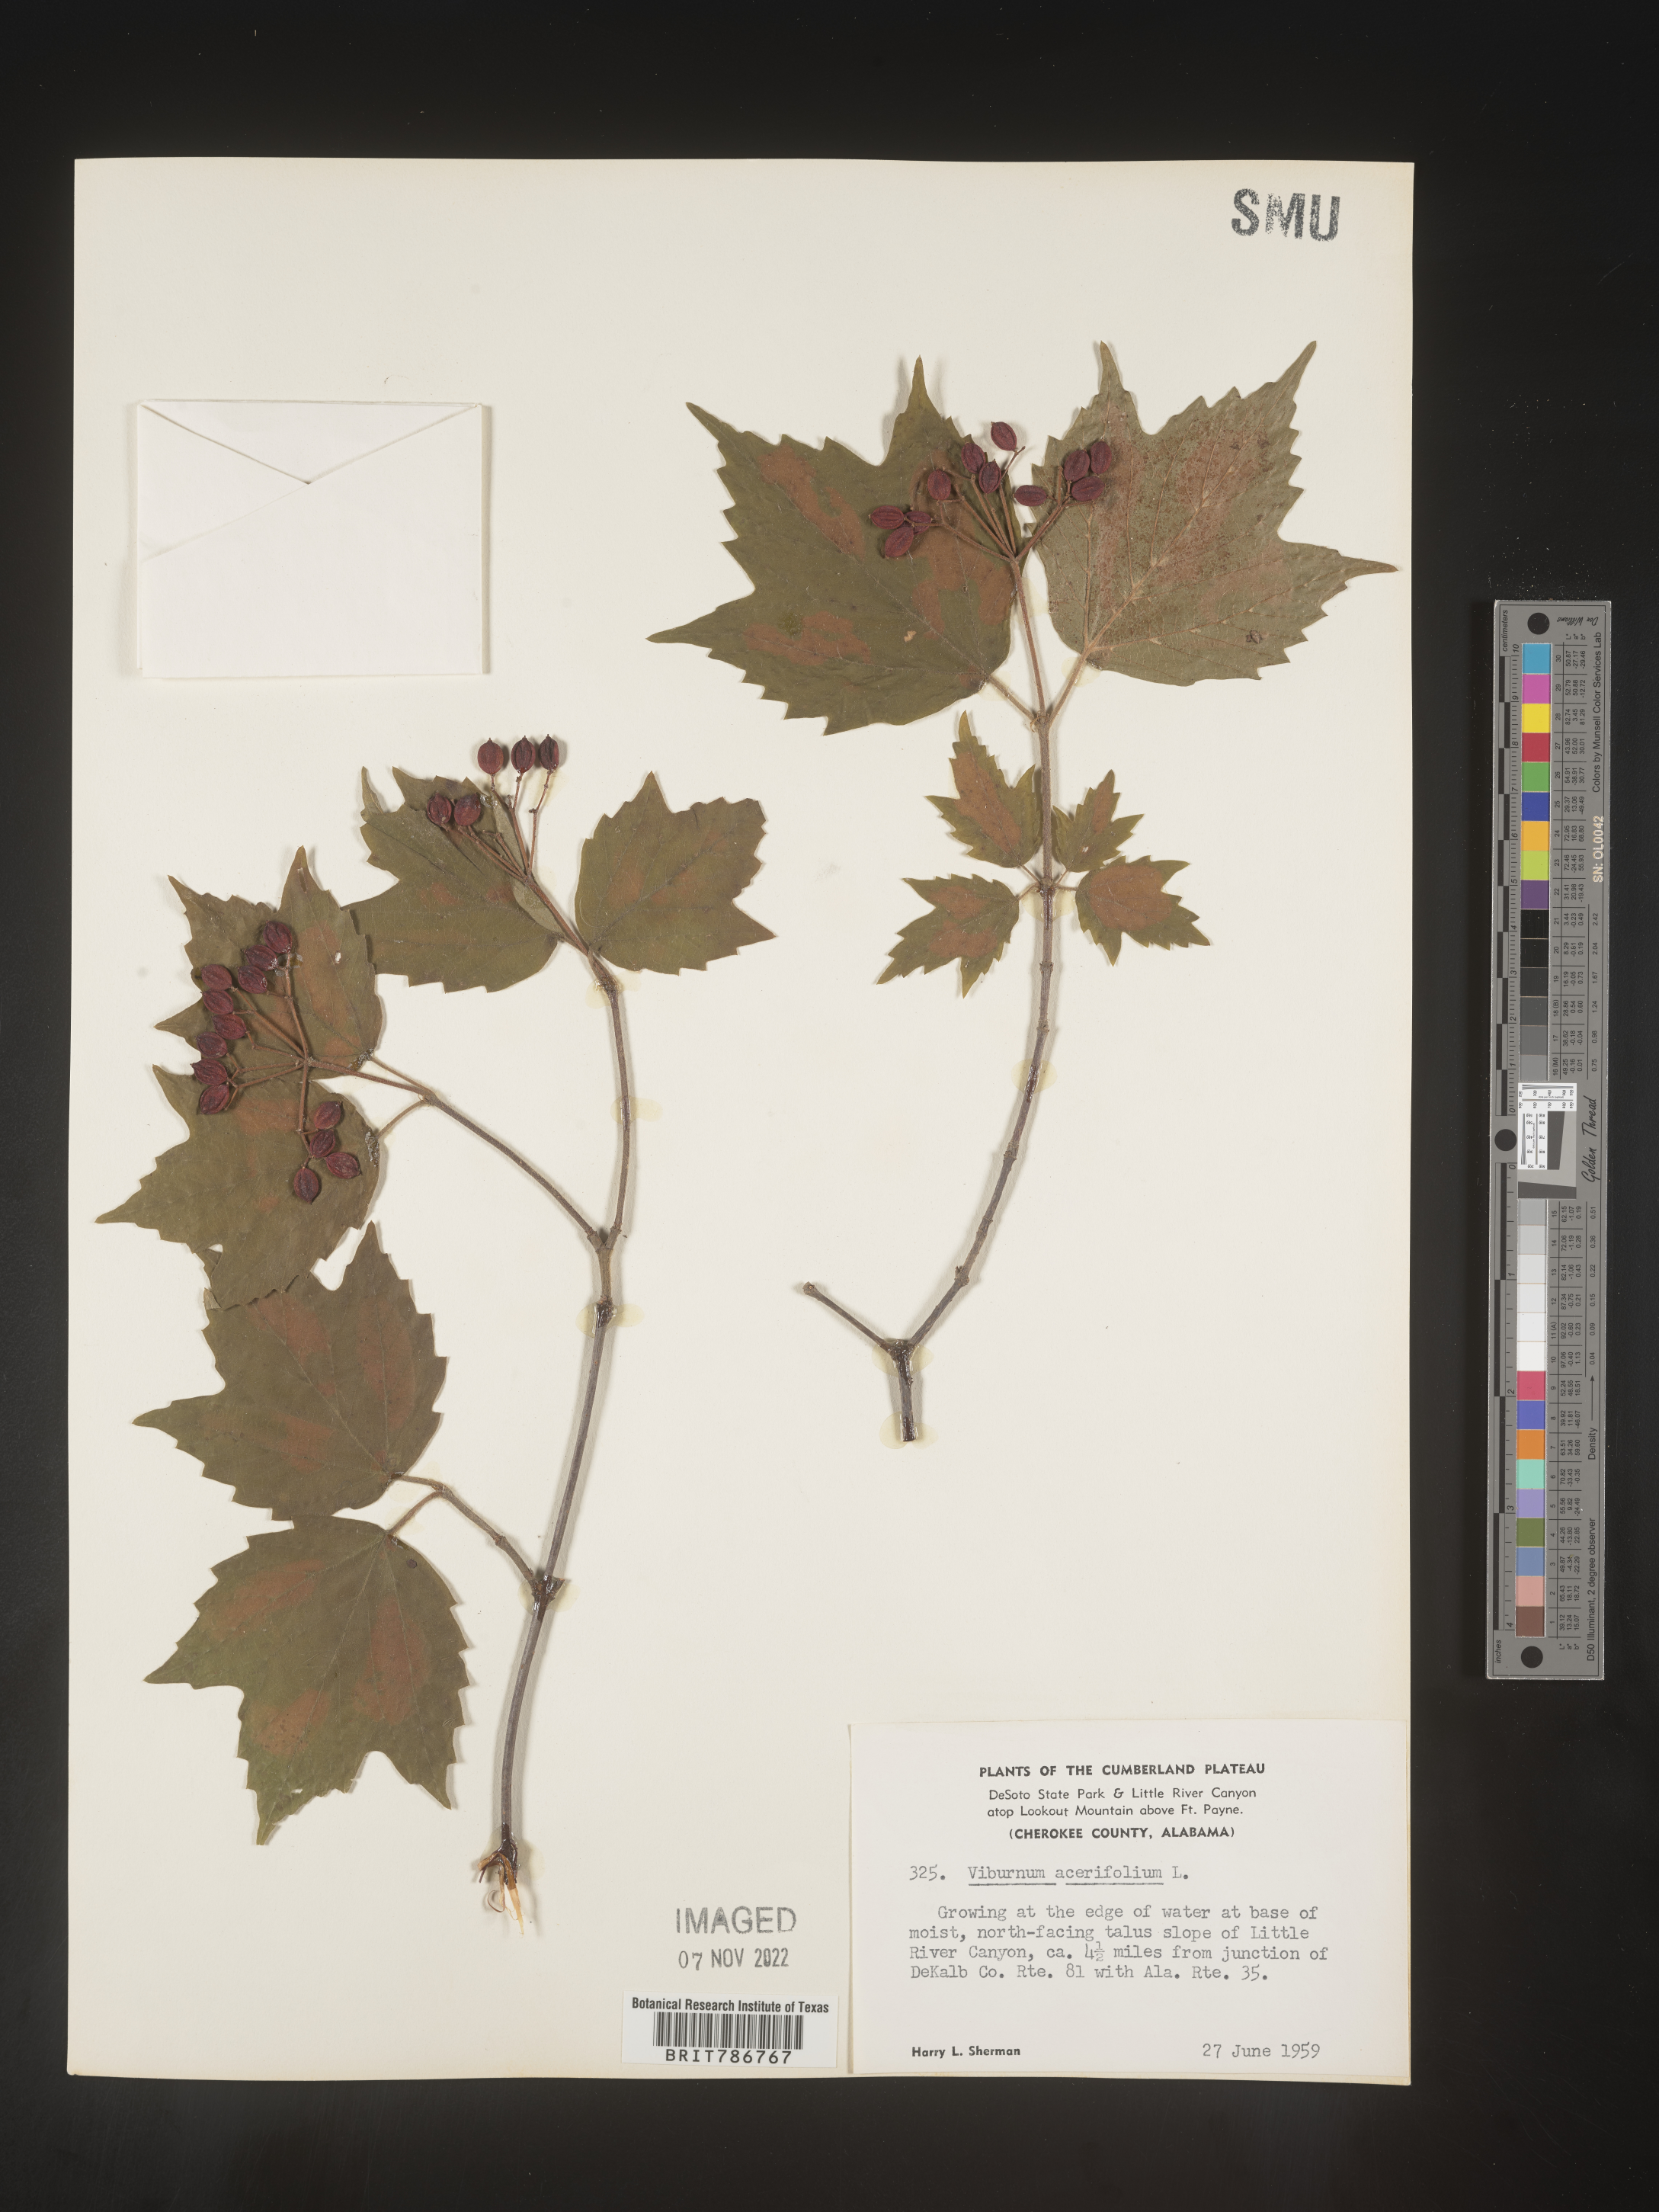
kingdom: Plantae
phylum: Tracheophyta
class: Magnoliopsida
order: Dipsacales
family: Viburnaceae
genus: Viburnum
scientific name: Viburnum acerifolium
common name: Dockmackie
